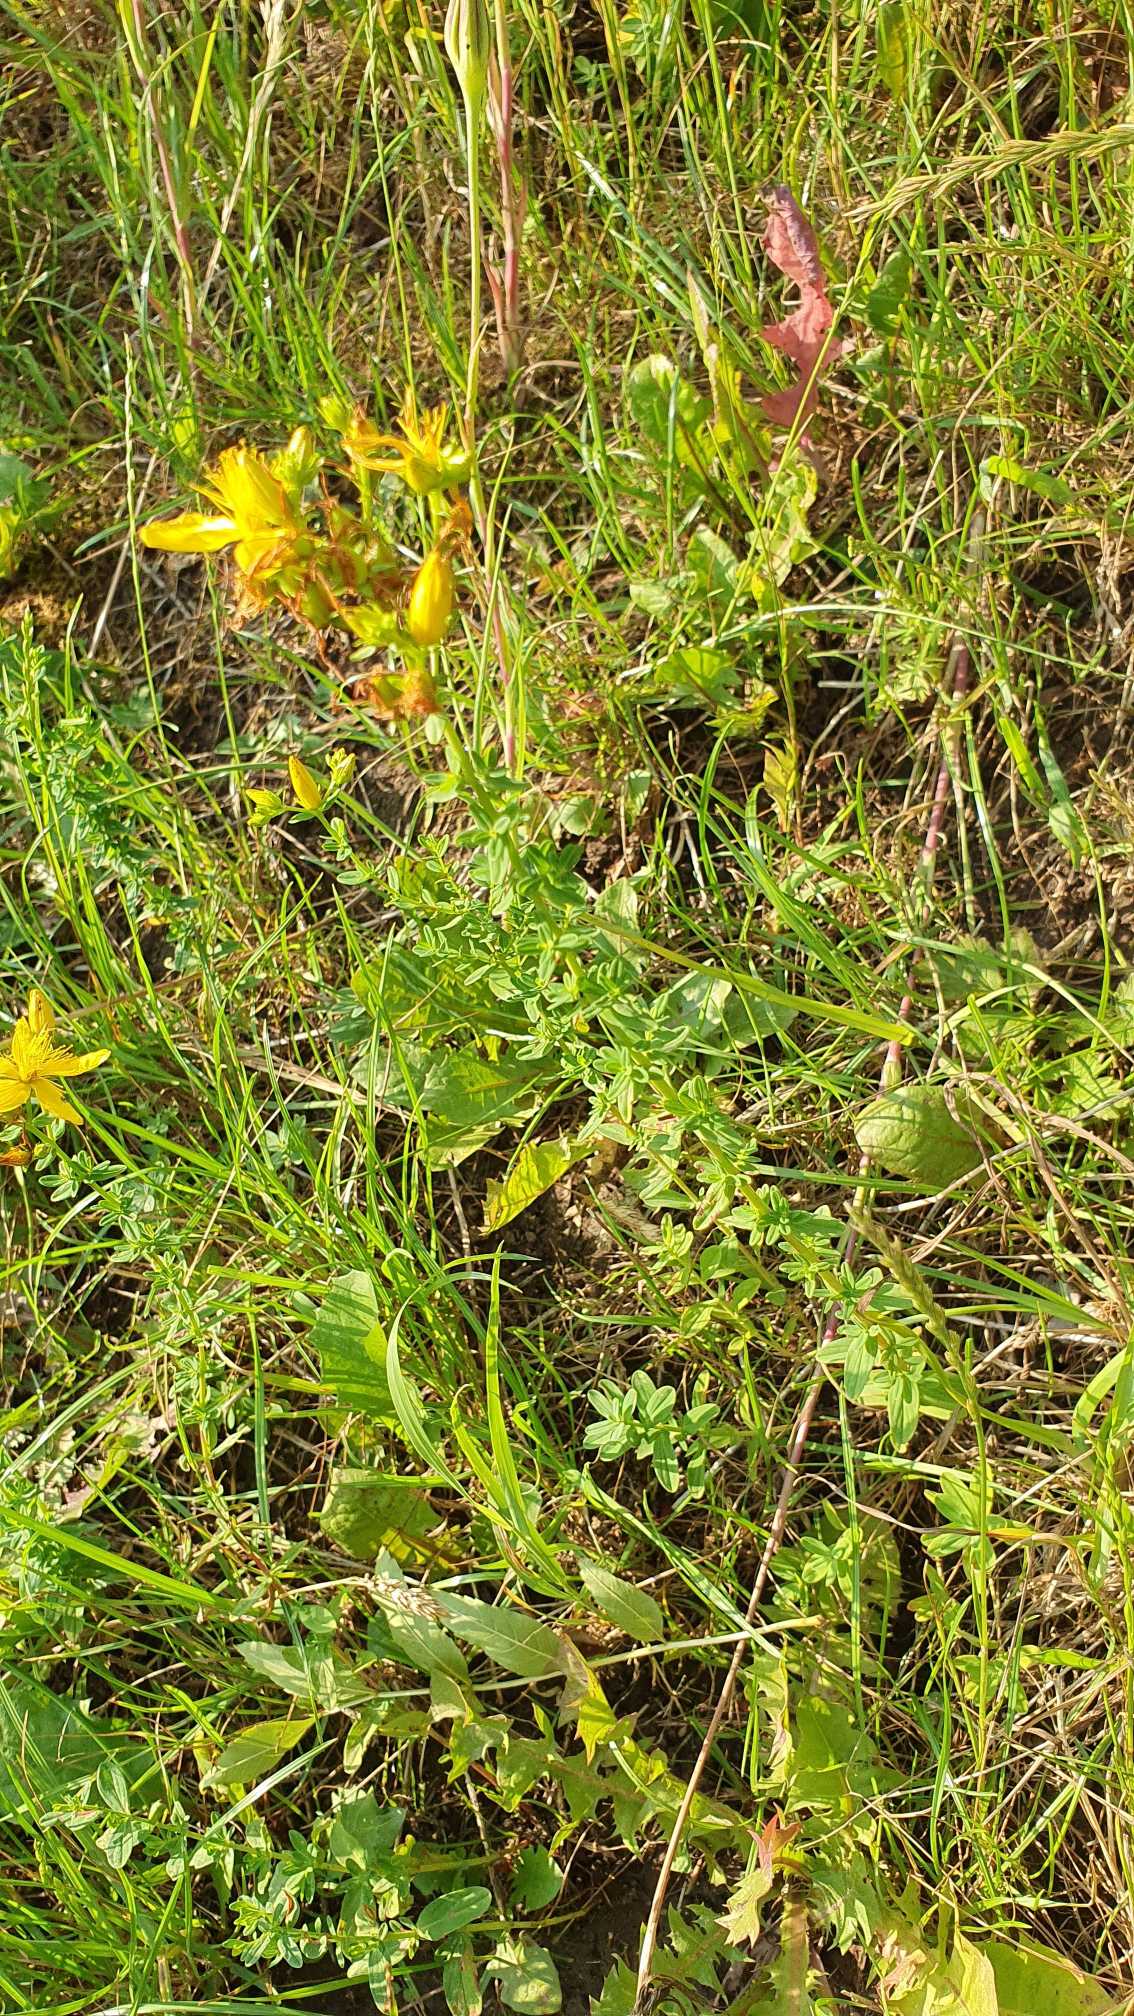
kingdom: Plantae
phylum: Tracheophyta
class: Magnoliopsida
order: Malpighiales
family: Hypericaceae
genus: Hypericum
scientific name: Hypericum perforatum
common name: Prikbladet perikon
